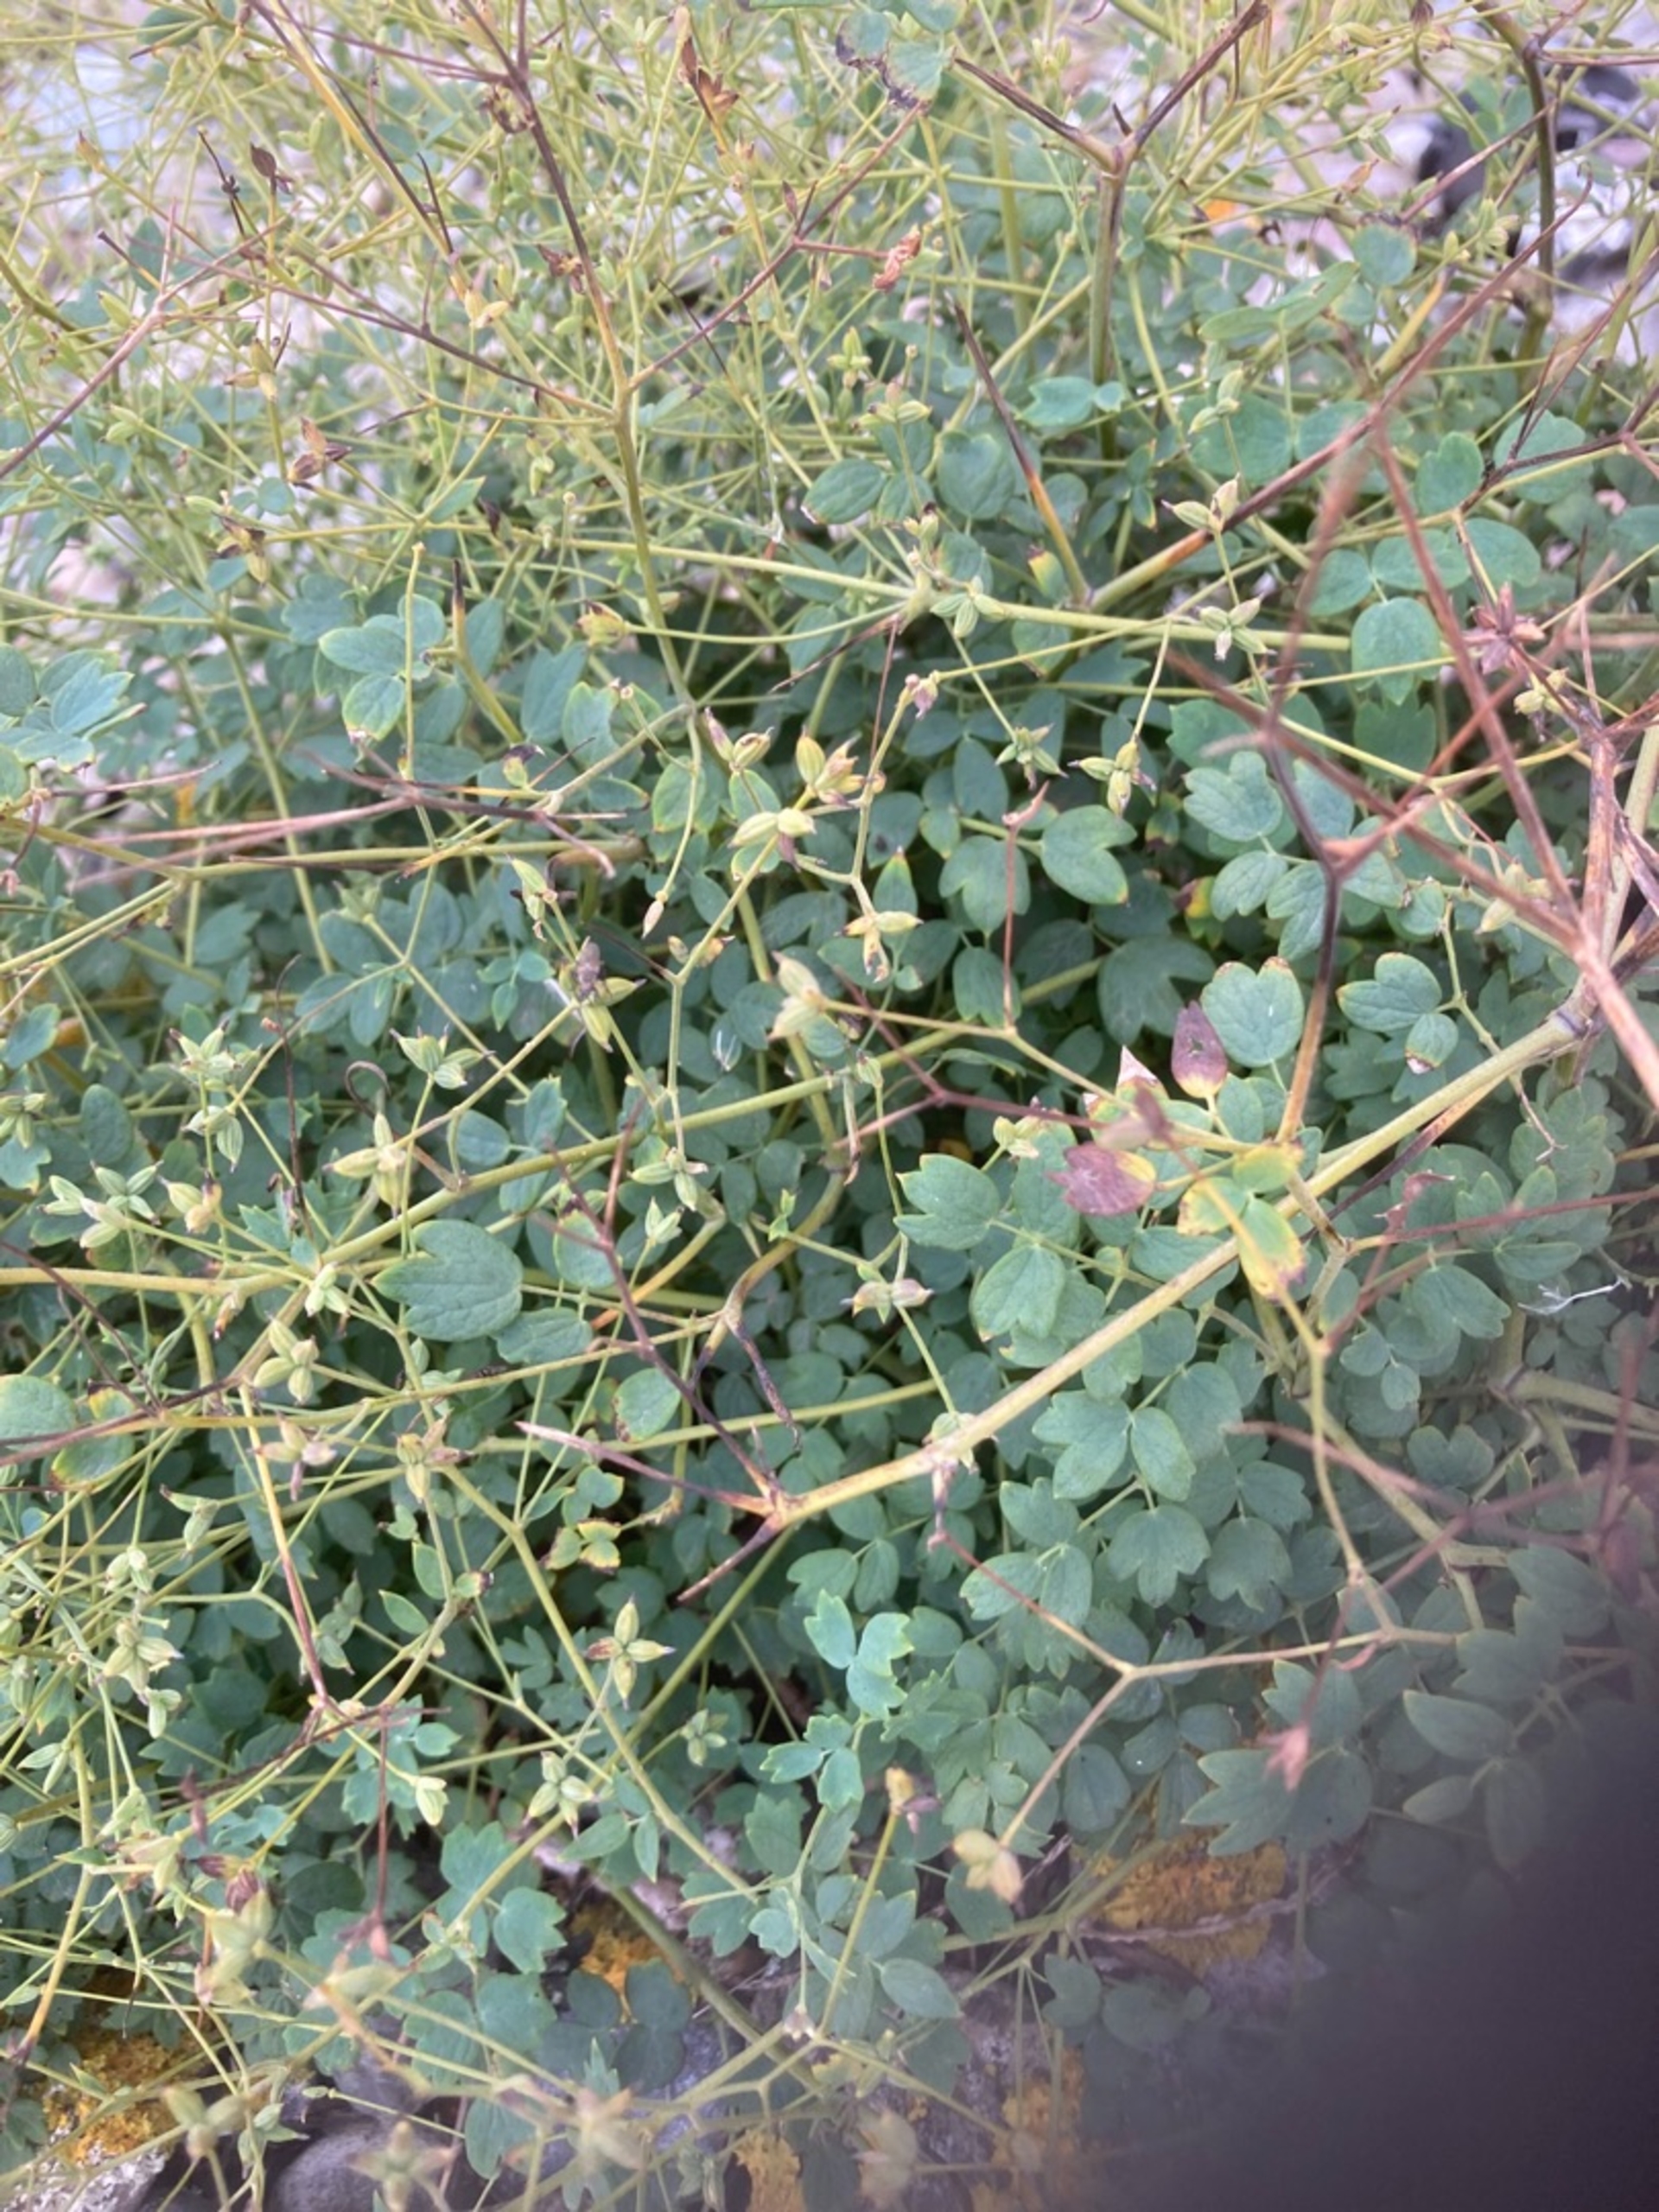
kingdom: Plantae
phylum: Tracheophyta
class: Magnoliopsida
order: Ranunculales
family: Ranunculaceae
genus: Thalictrum
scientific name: Thalictrum minus
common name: Sand-frøstjerne
